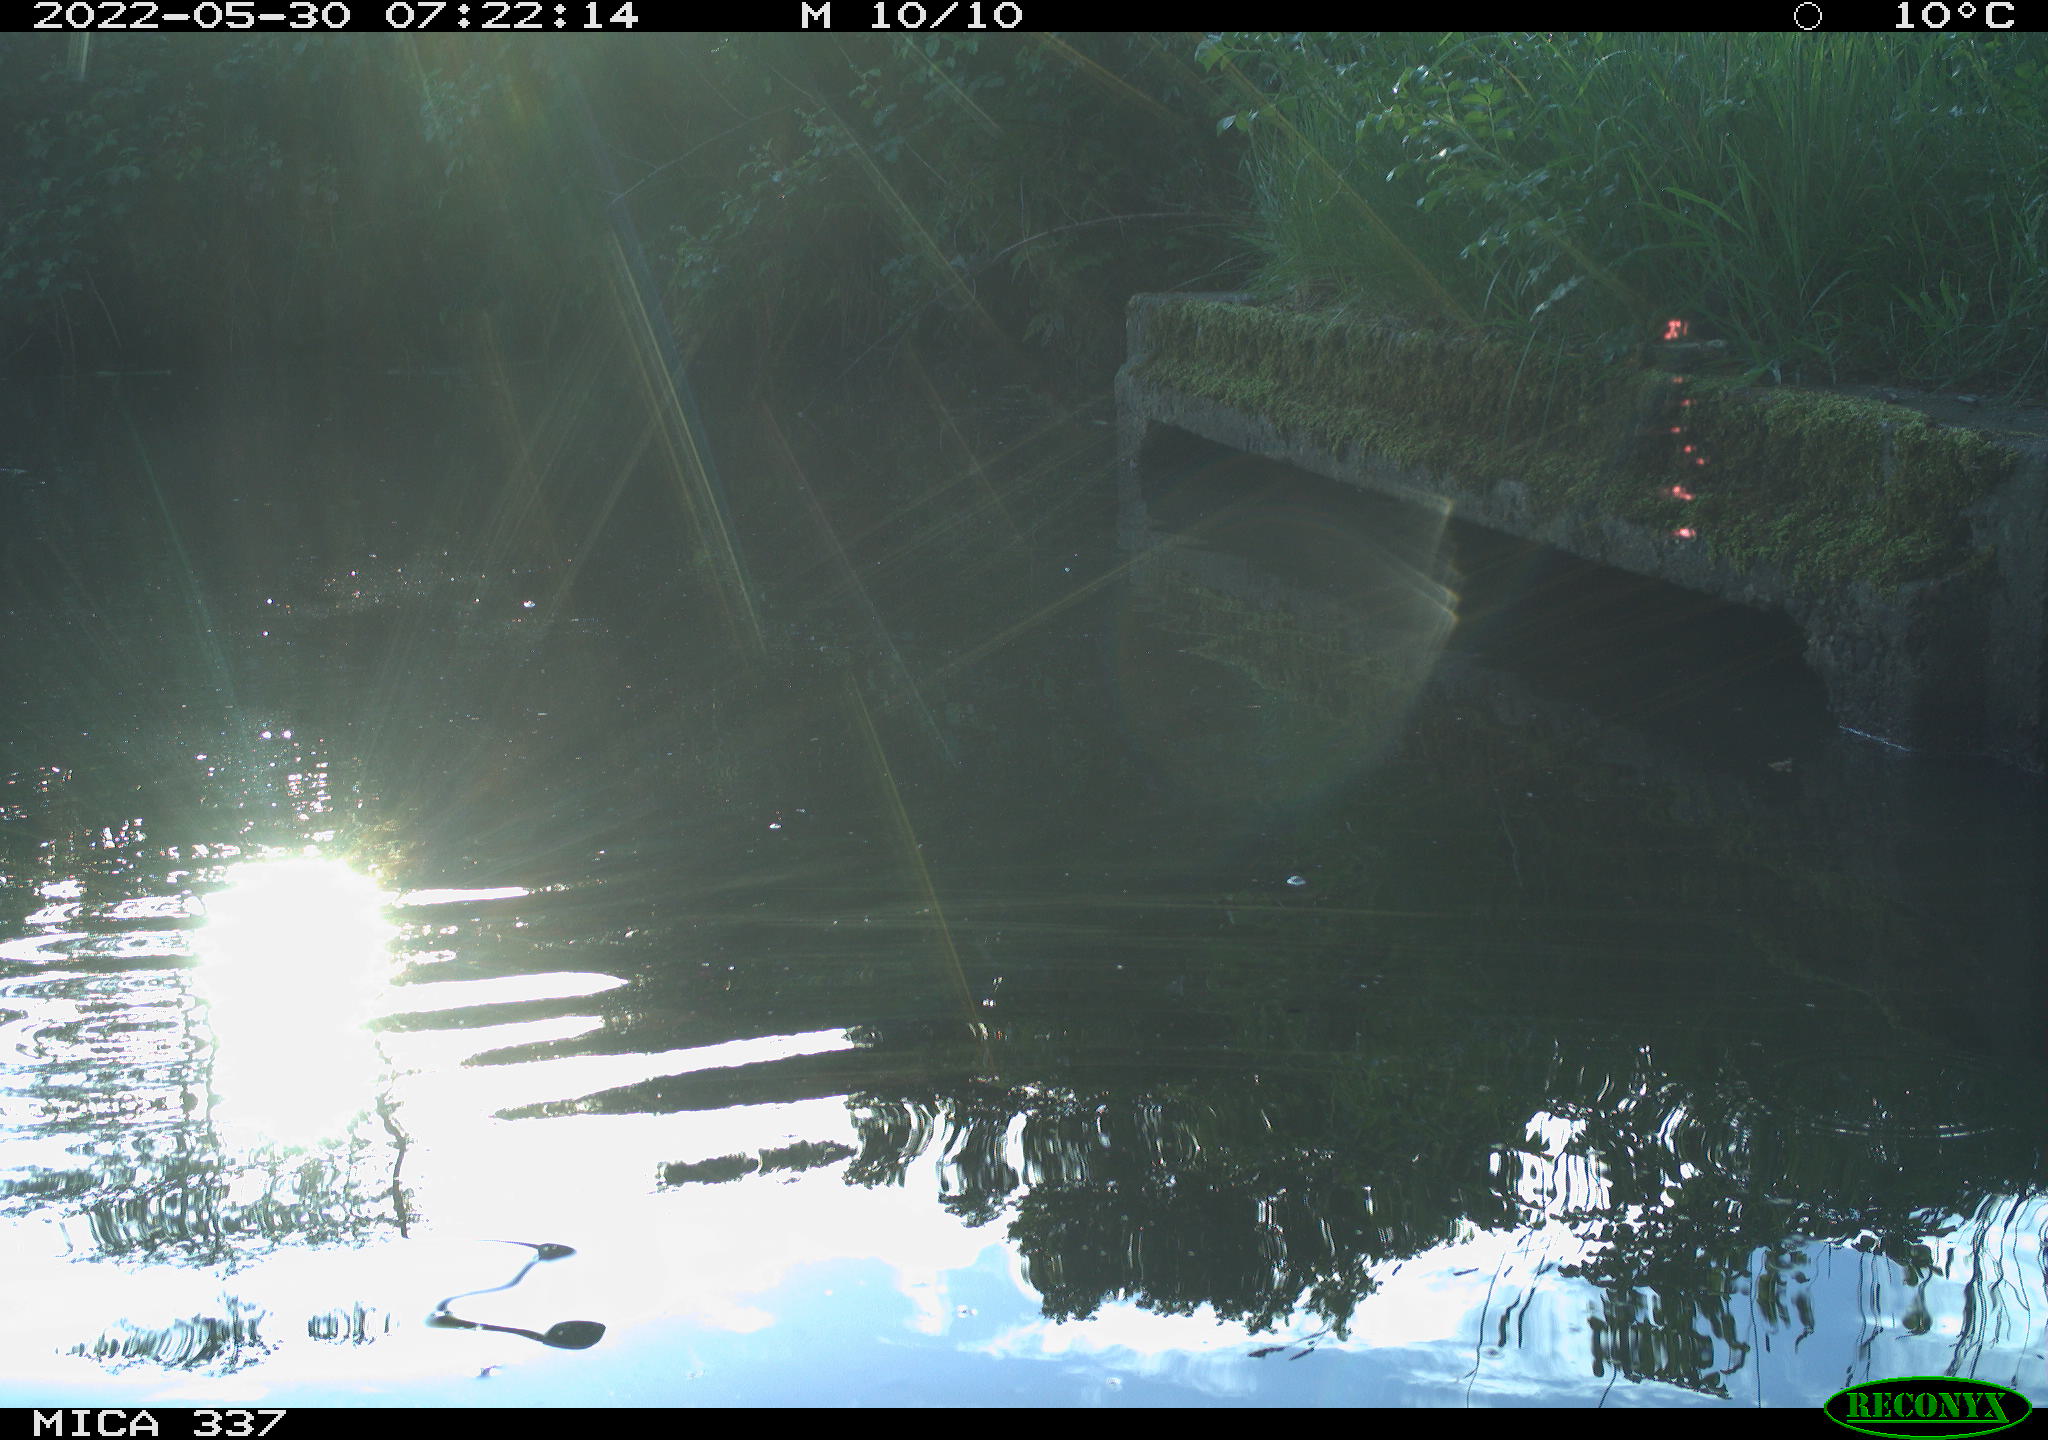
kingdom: Animalia
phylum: Chordata
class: Aves
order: Anseriformes
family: Anatidae
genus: Anas
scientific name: Anas platyrhynchos
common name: Mallard
